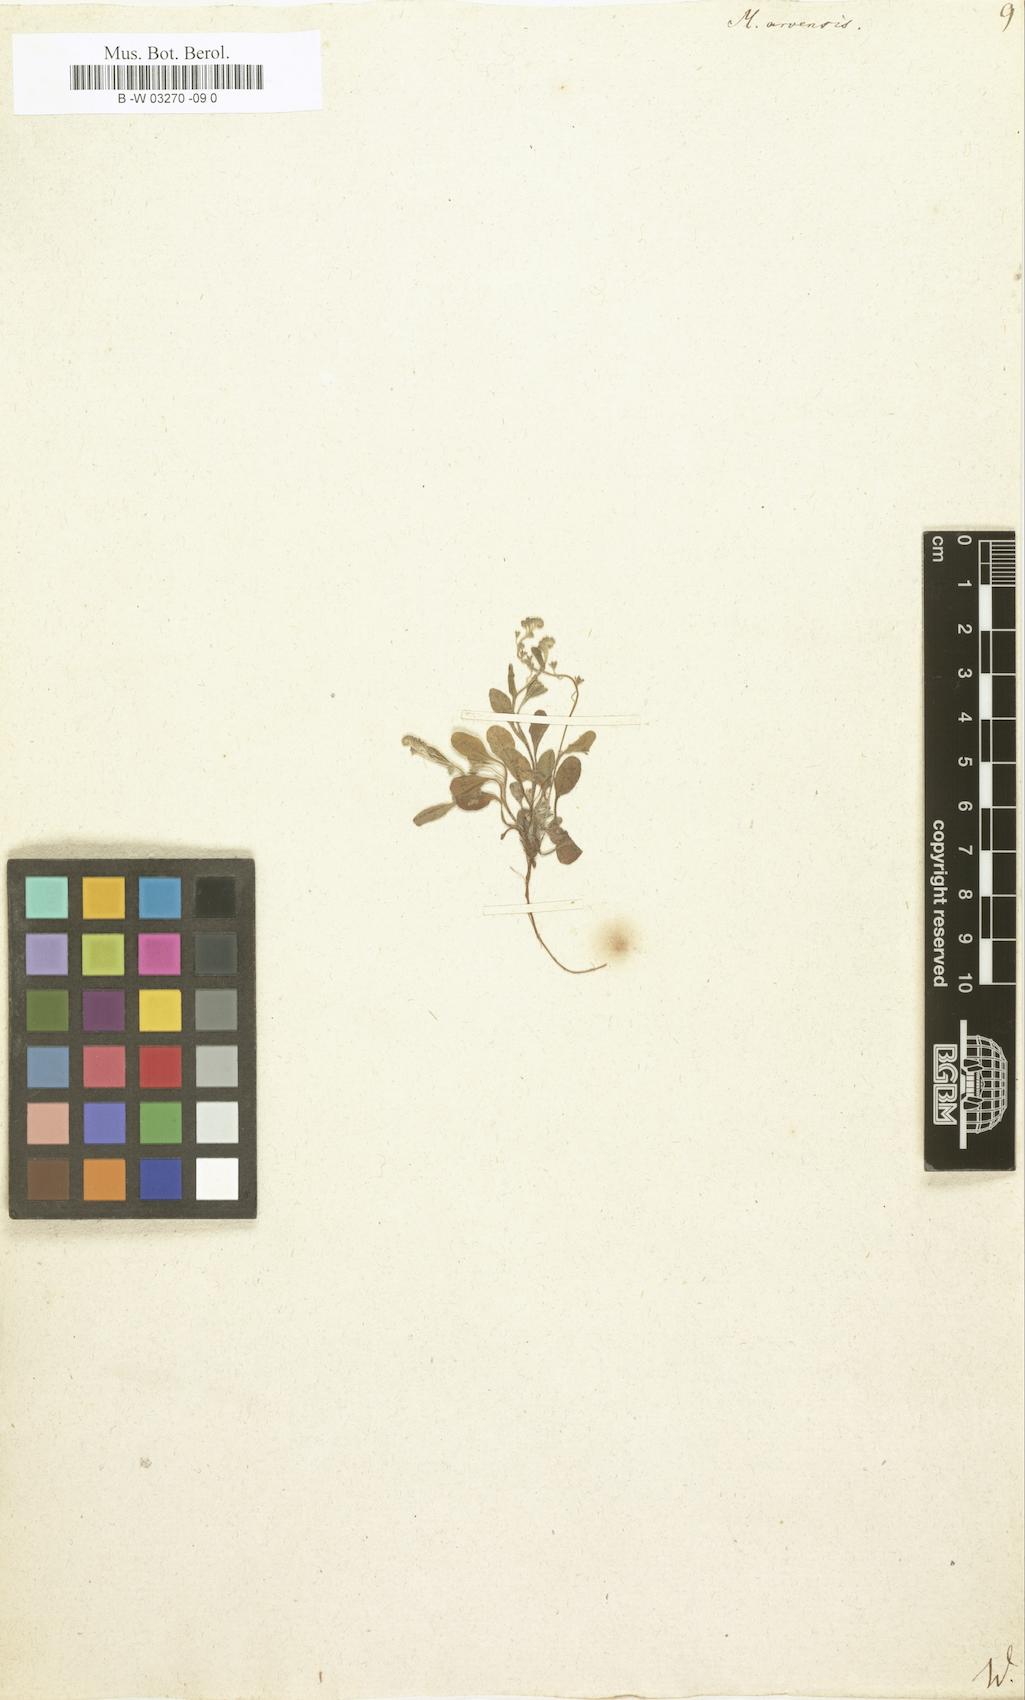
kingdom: Plantae
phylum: Tracheophyta
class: Magnoliopsida
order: Boraginales
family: Boraginaceae
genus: Myosotis
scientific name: Myosotis arvensis
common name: Field forget-me-not
